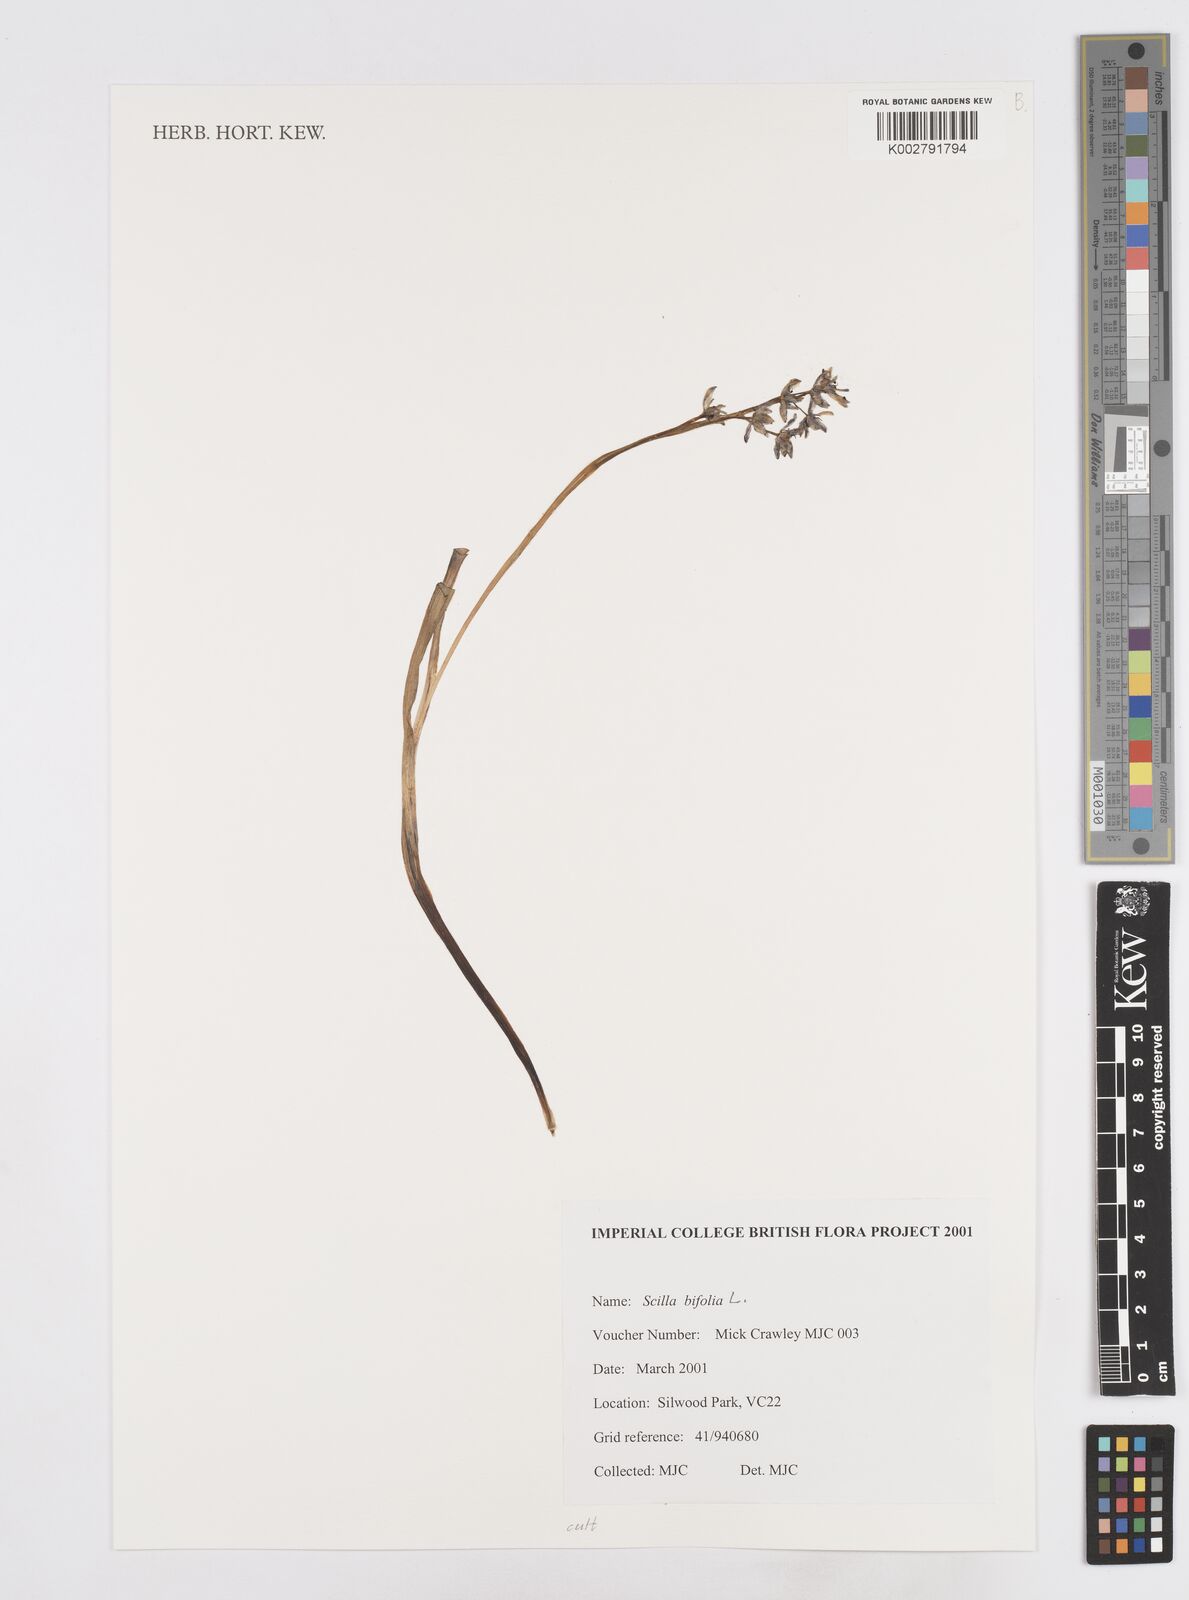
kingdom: Plantae
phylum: Tracheophyta
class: Liliopsida
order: Asparagales
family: Asparagaceae
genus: Scilla
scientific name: Scilla bifolia
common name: Alpine squill
